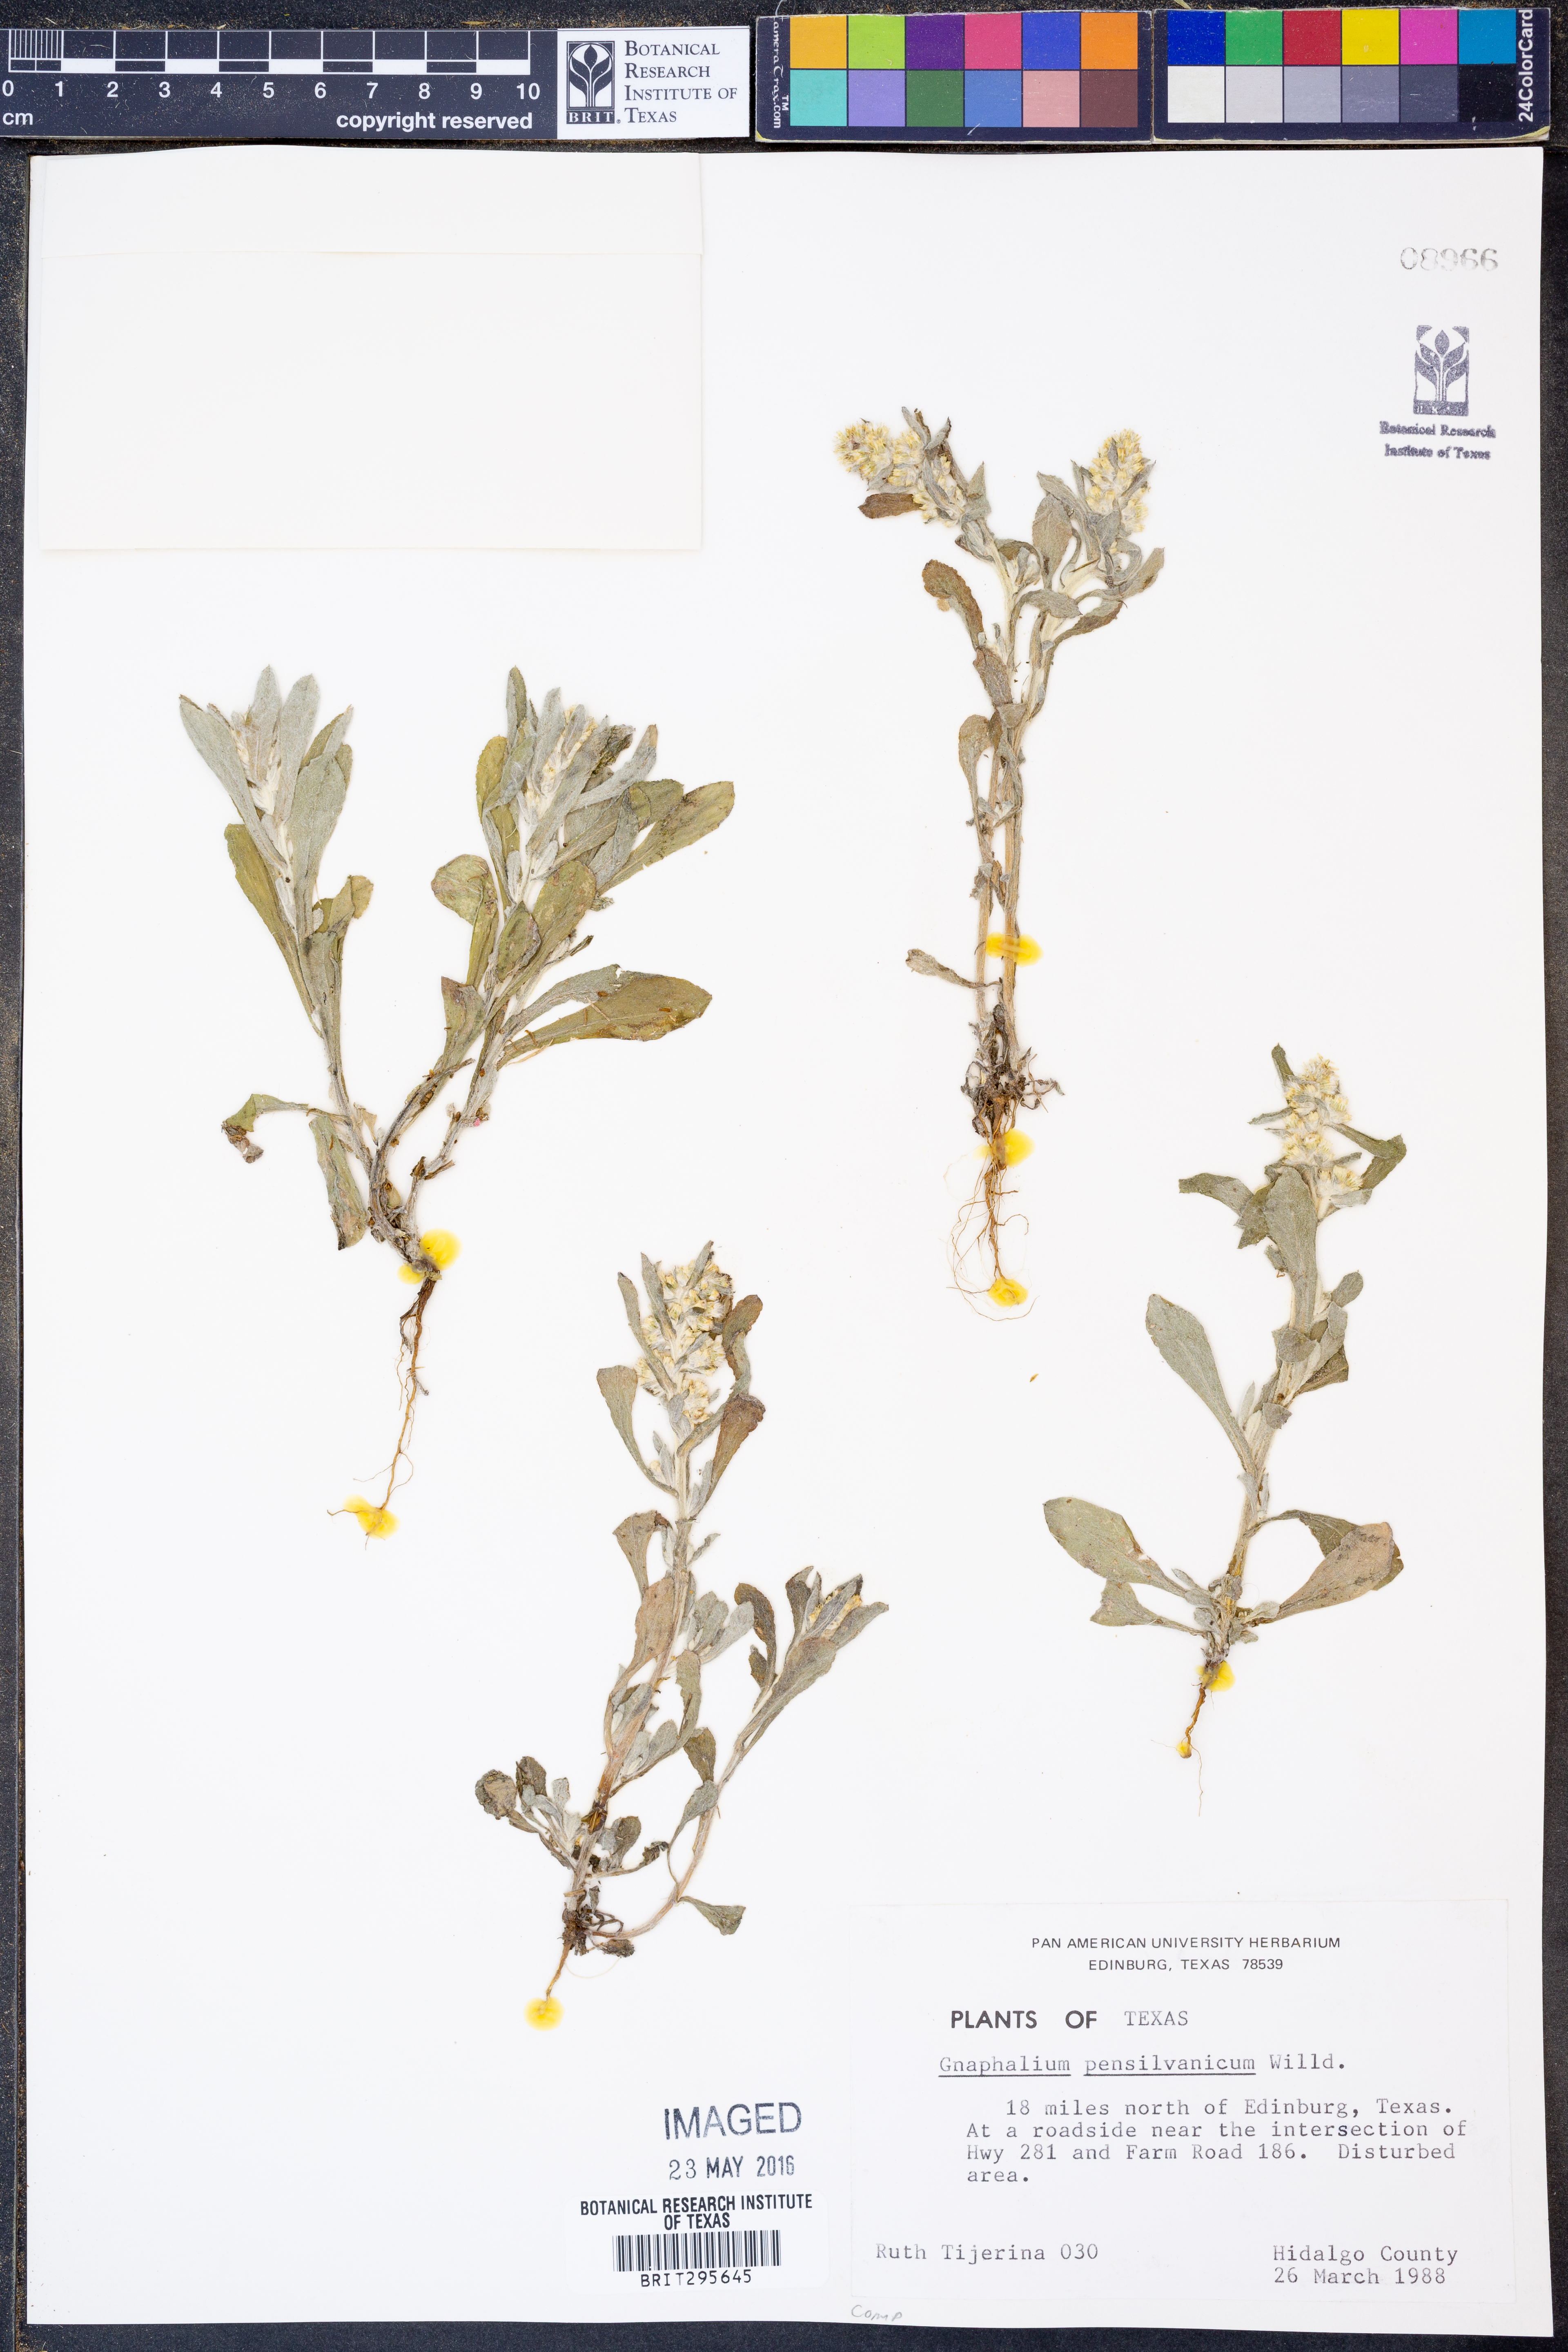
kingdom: Plantae
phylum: Tracheophyta
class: Magnoliopsida
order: Asterales
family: Asteraceae
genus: Gamochaeta
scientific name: Gamochaeta pensylvanica
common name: Pennsylvania everlasting
